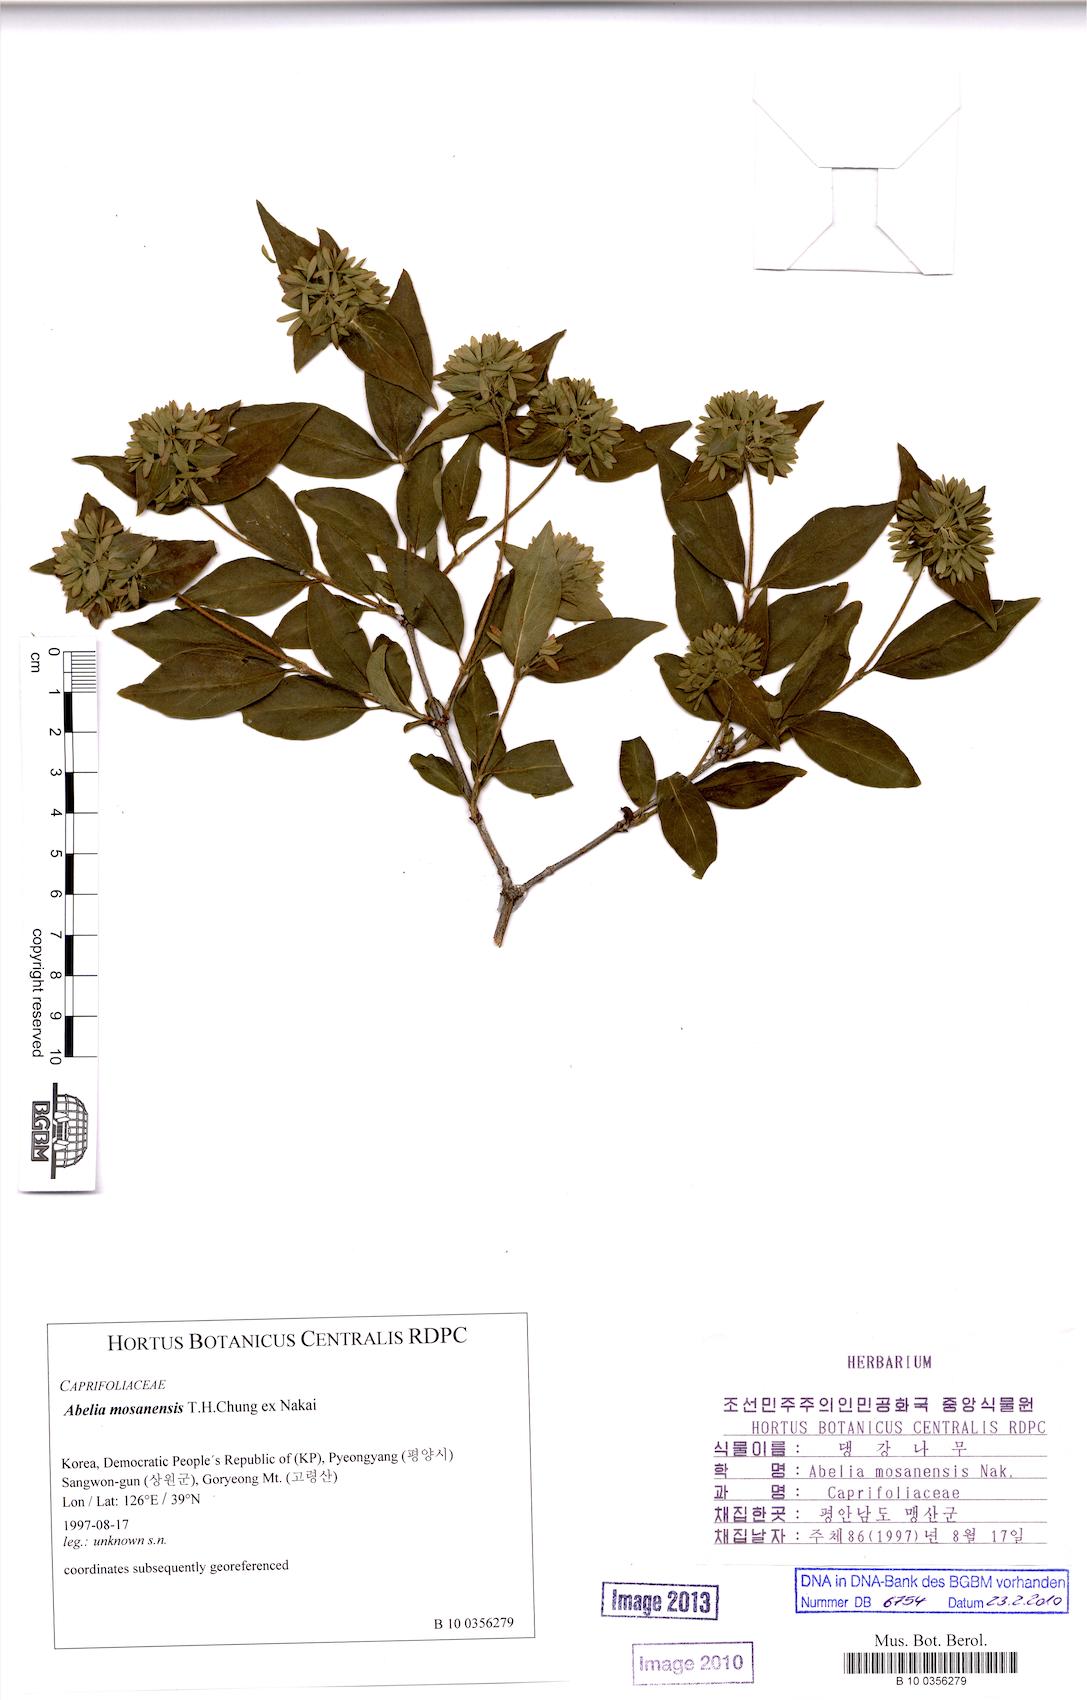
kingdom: Plantae
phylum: Tracheophyta
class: Magnoliopsida
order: Dipsacales
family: Caprifoliaceae
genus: Zabelia
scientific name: Zabelia tyaihyoni
